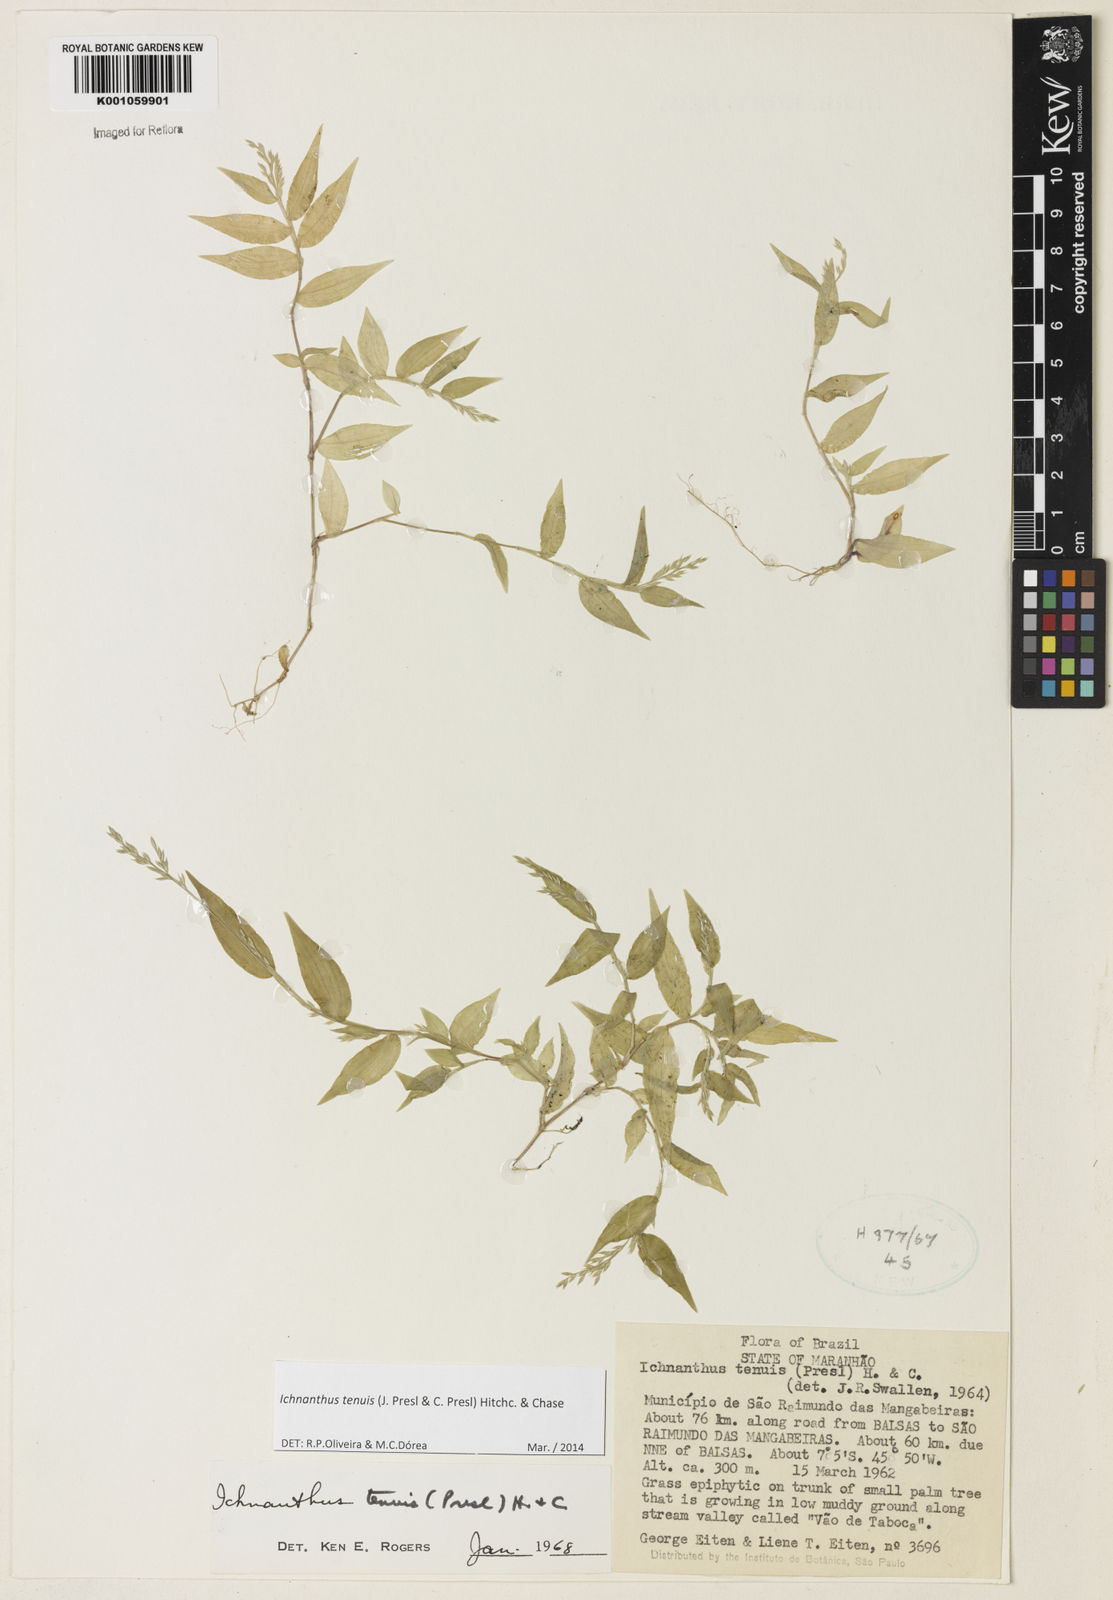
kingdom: Plantae
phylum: Tracheophyta
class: Liliopsida
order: Poales
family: Poaceae
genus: Ichnanthus
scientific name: Ichnanthus tenuis
